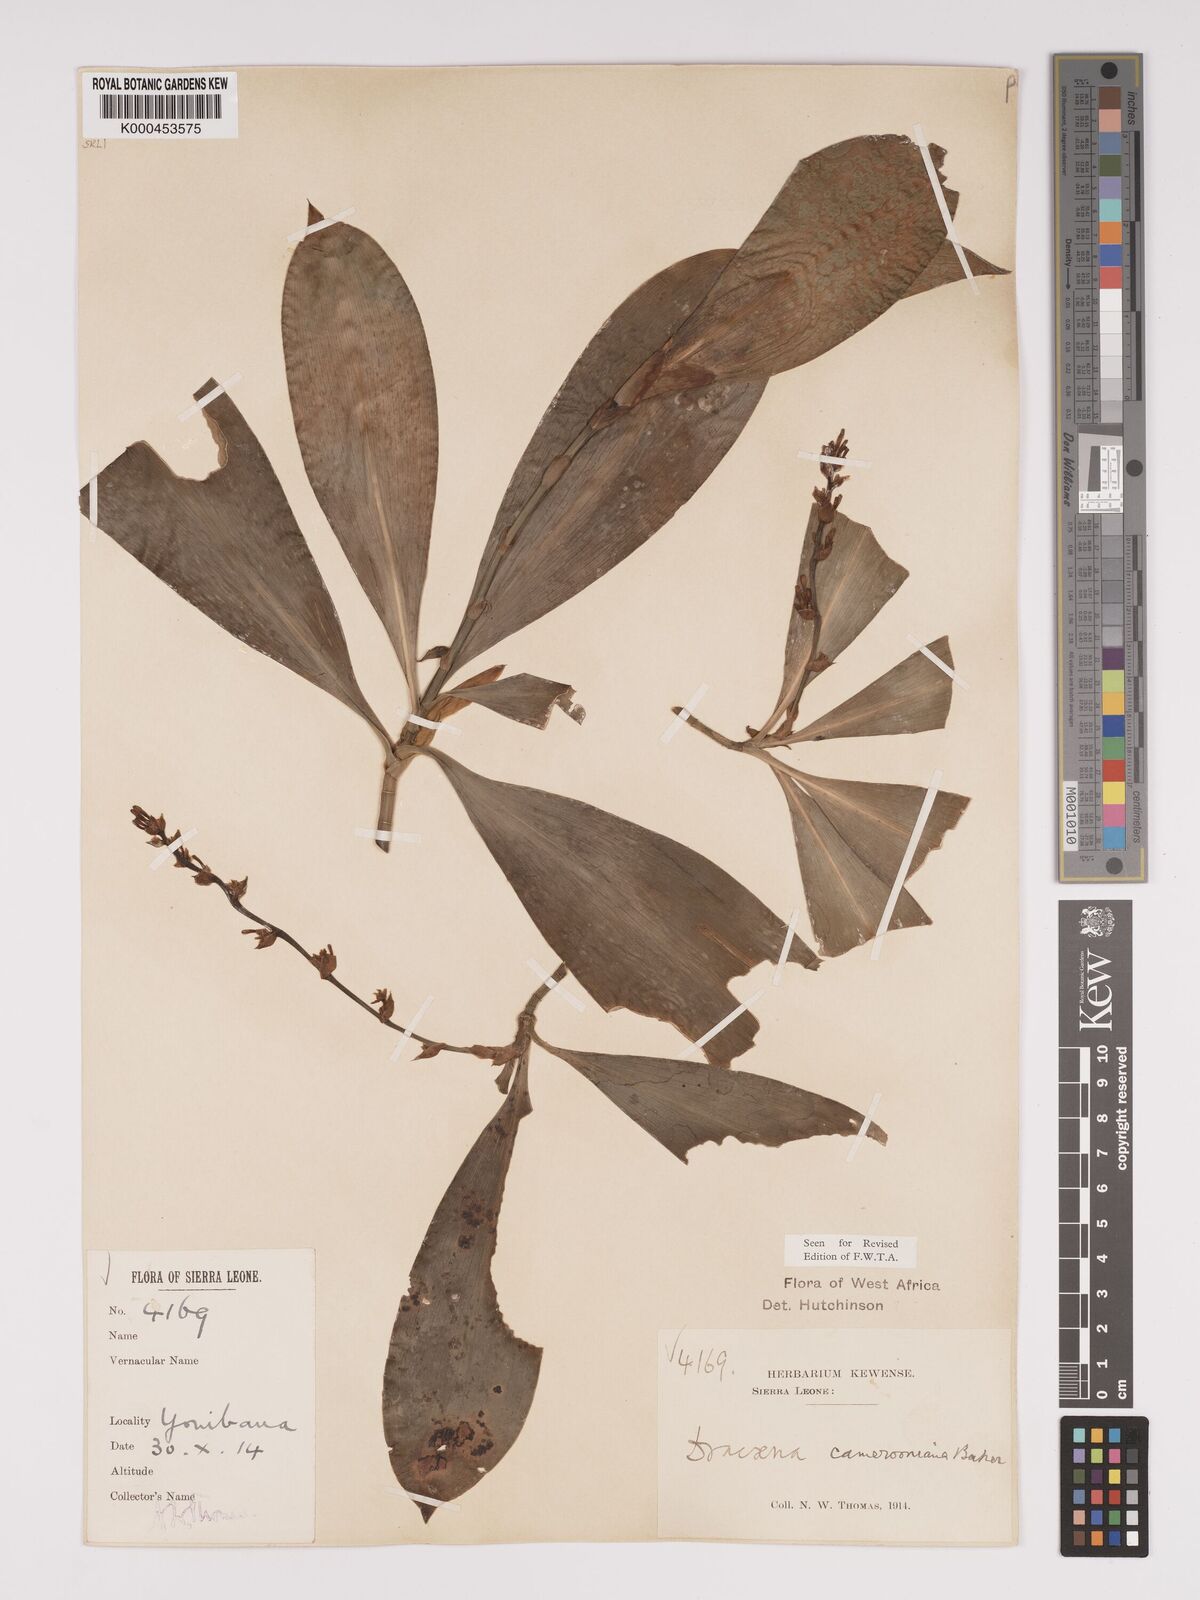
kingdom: Plantae
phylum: Tracheophyta
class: Liliopsida
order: Asparagales
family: Asparagaceae
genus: Dracaena
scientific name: Dracaena camerooniana
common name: Dragon tree
